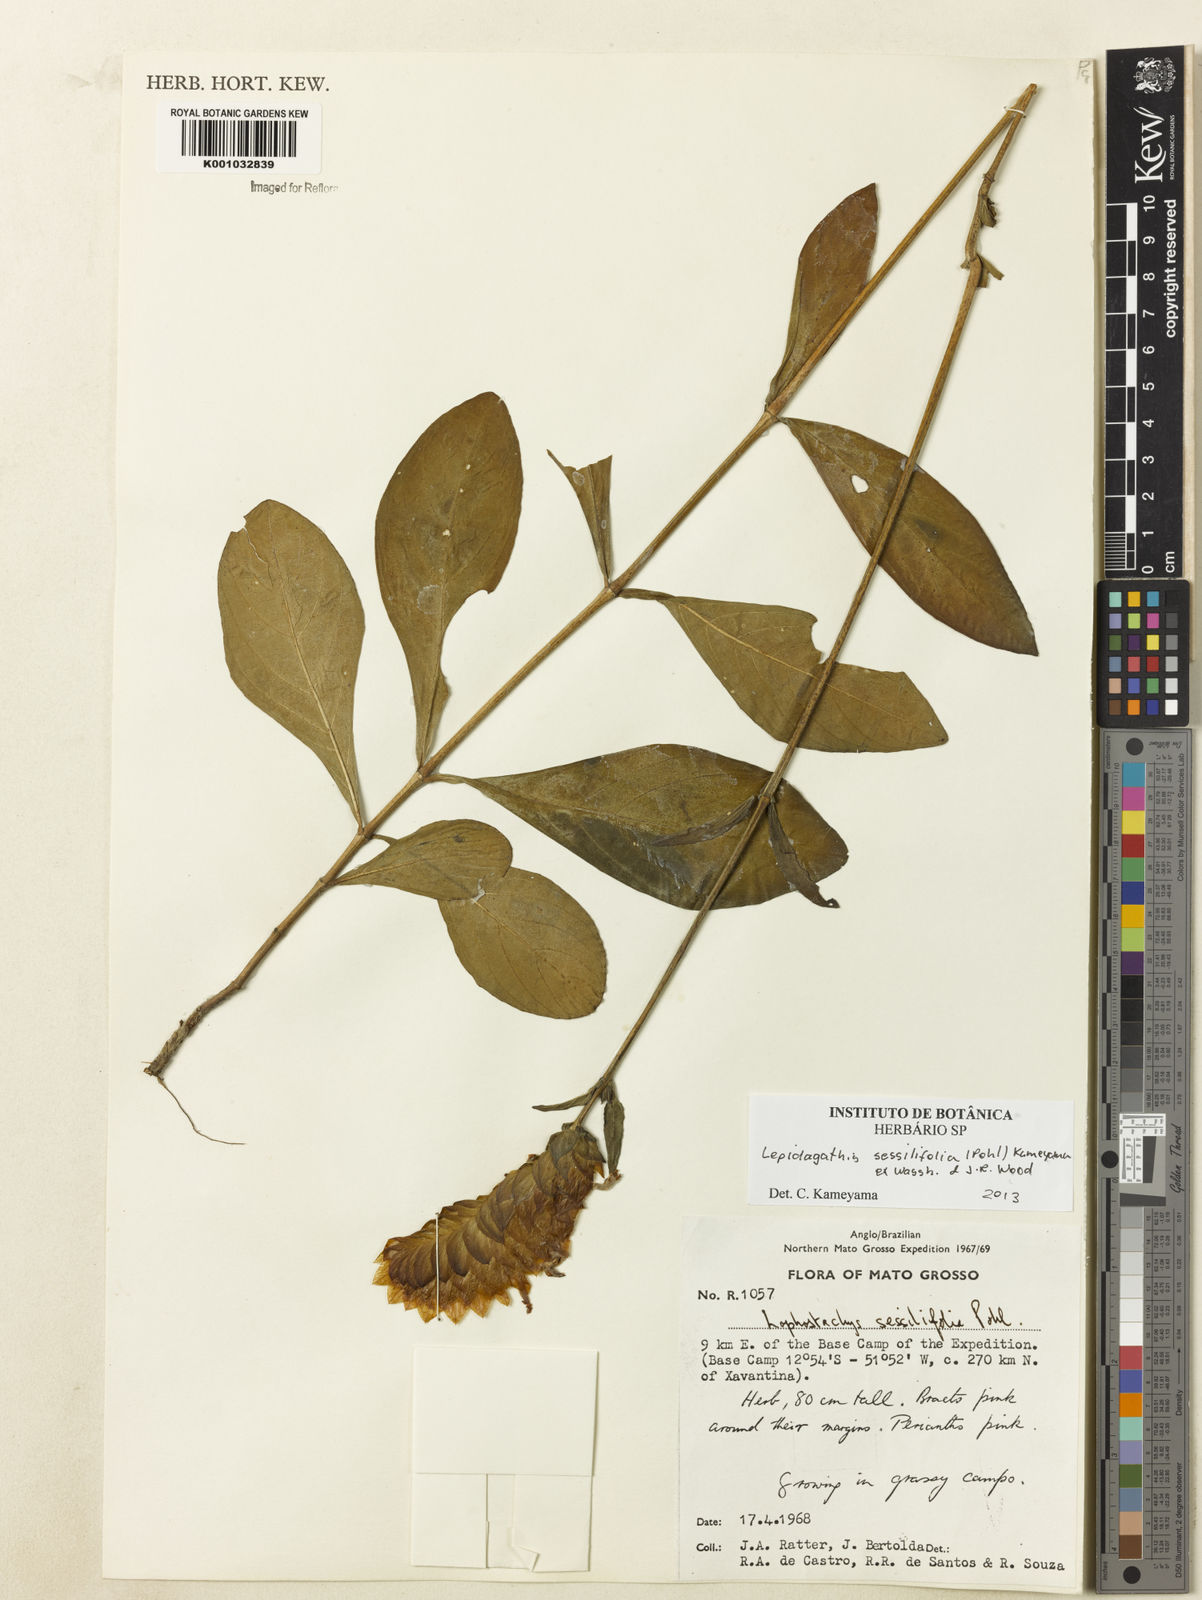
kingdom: Plantae
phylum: Tracheophyta
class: Magnoliopsida
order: Lamiales
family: Acanthaceae
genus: Lepidagathis
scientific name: Lepidagathis sessilifolia
